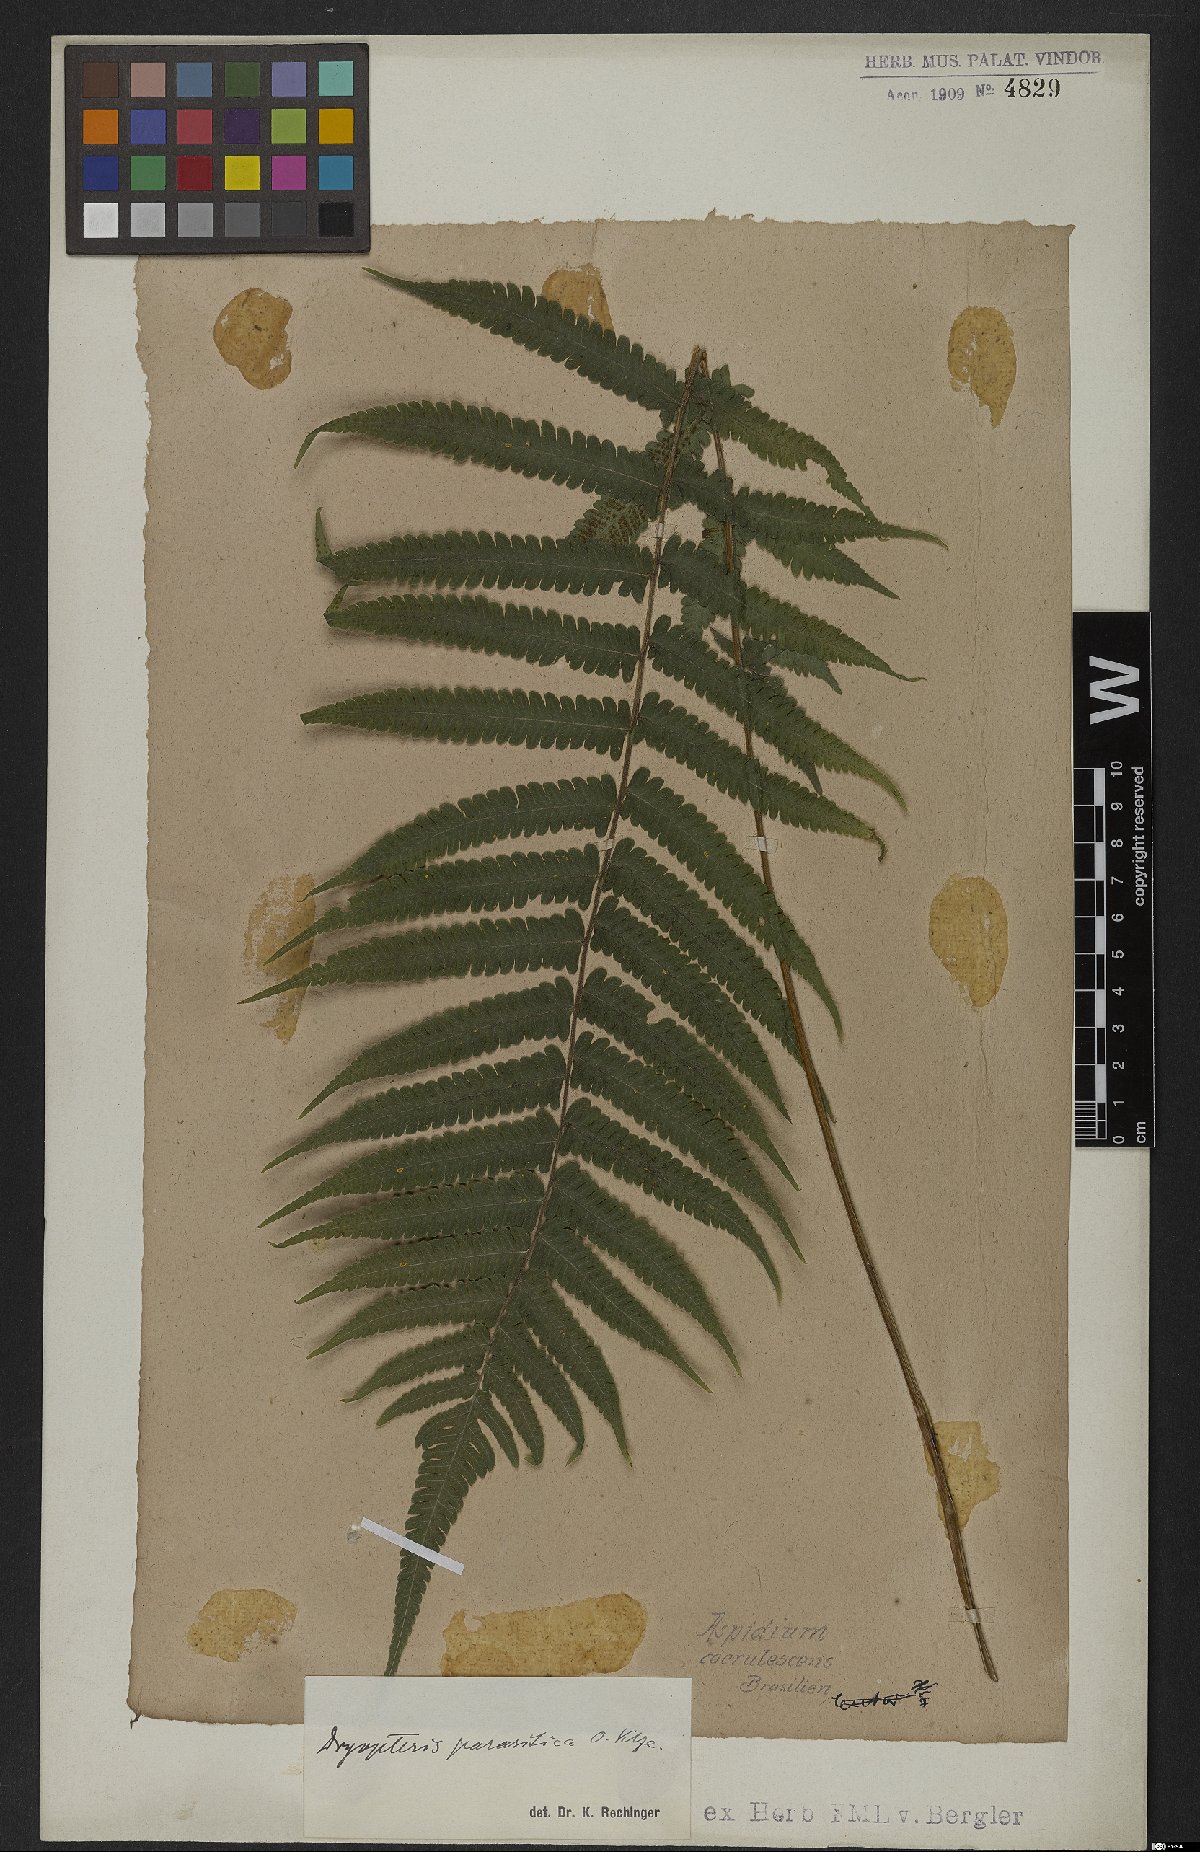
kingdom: Plantae
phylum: Tracheophyta
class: Polypodiopsida
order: Polypodiales
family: Thelypteridaceae
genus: Christella
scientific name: Christella parasitica
